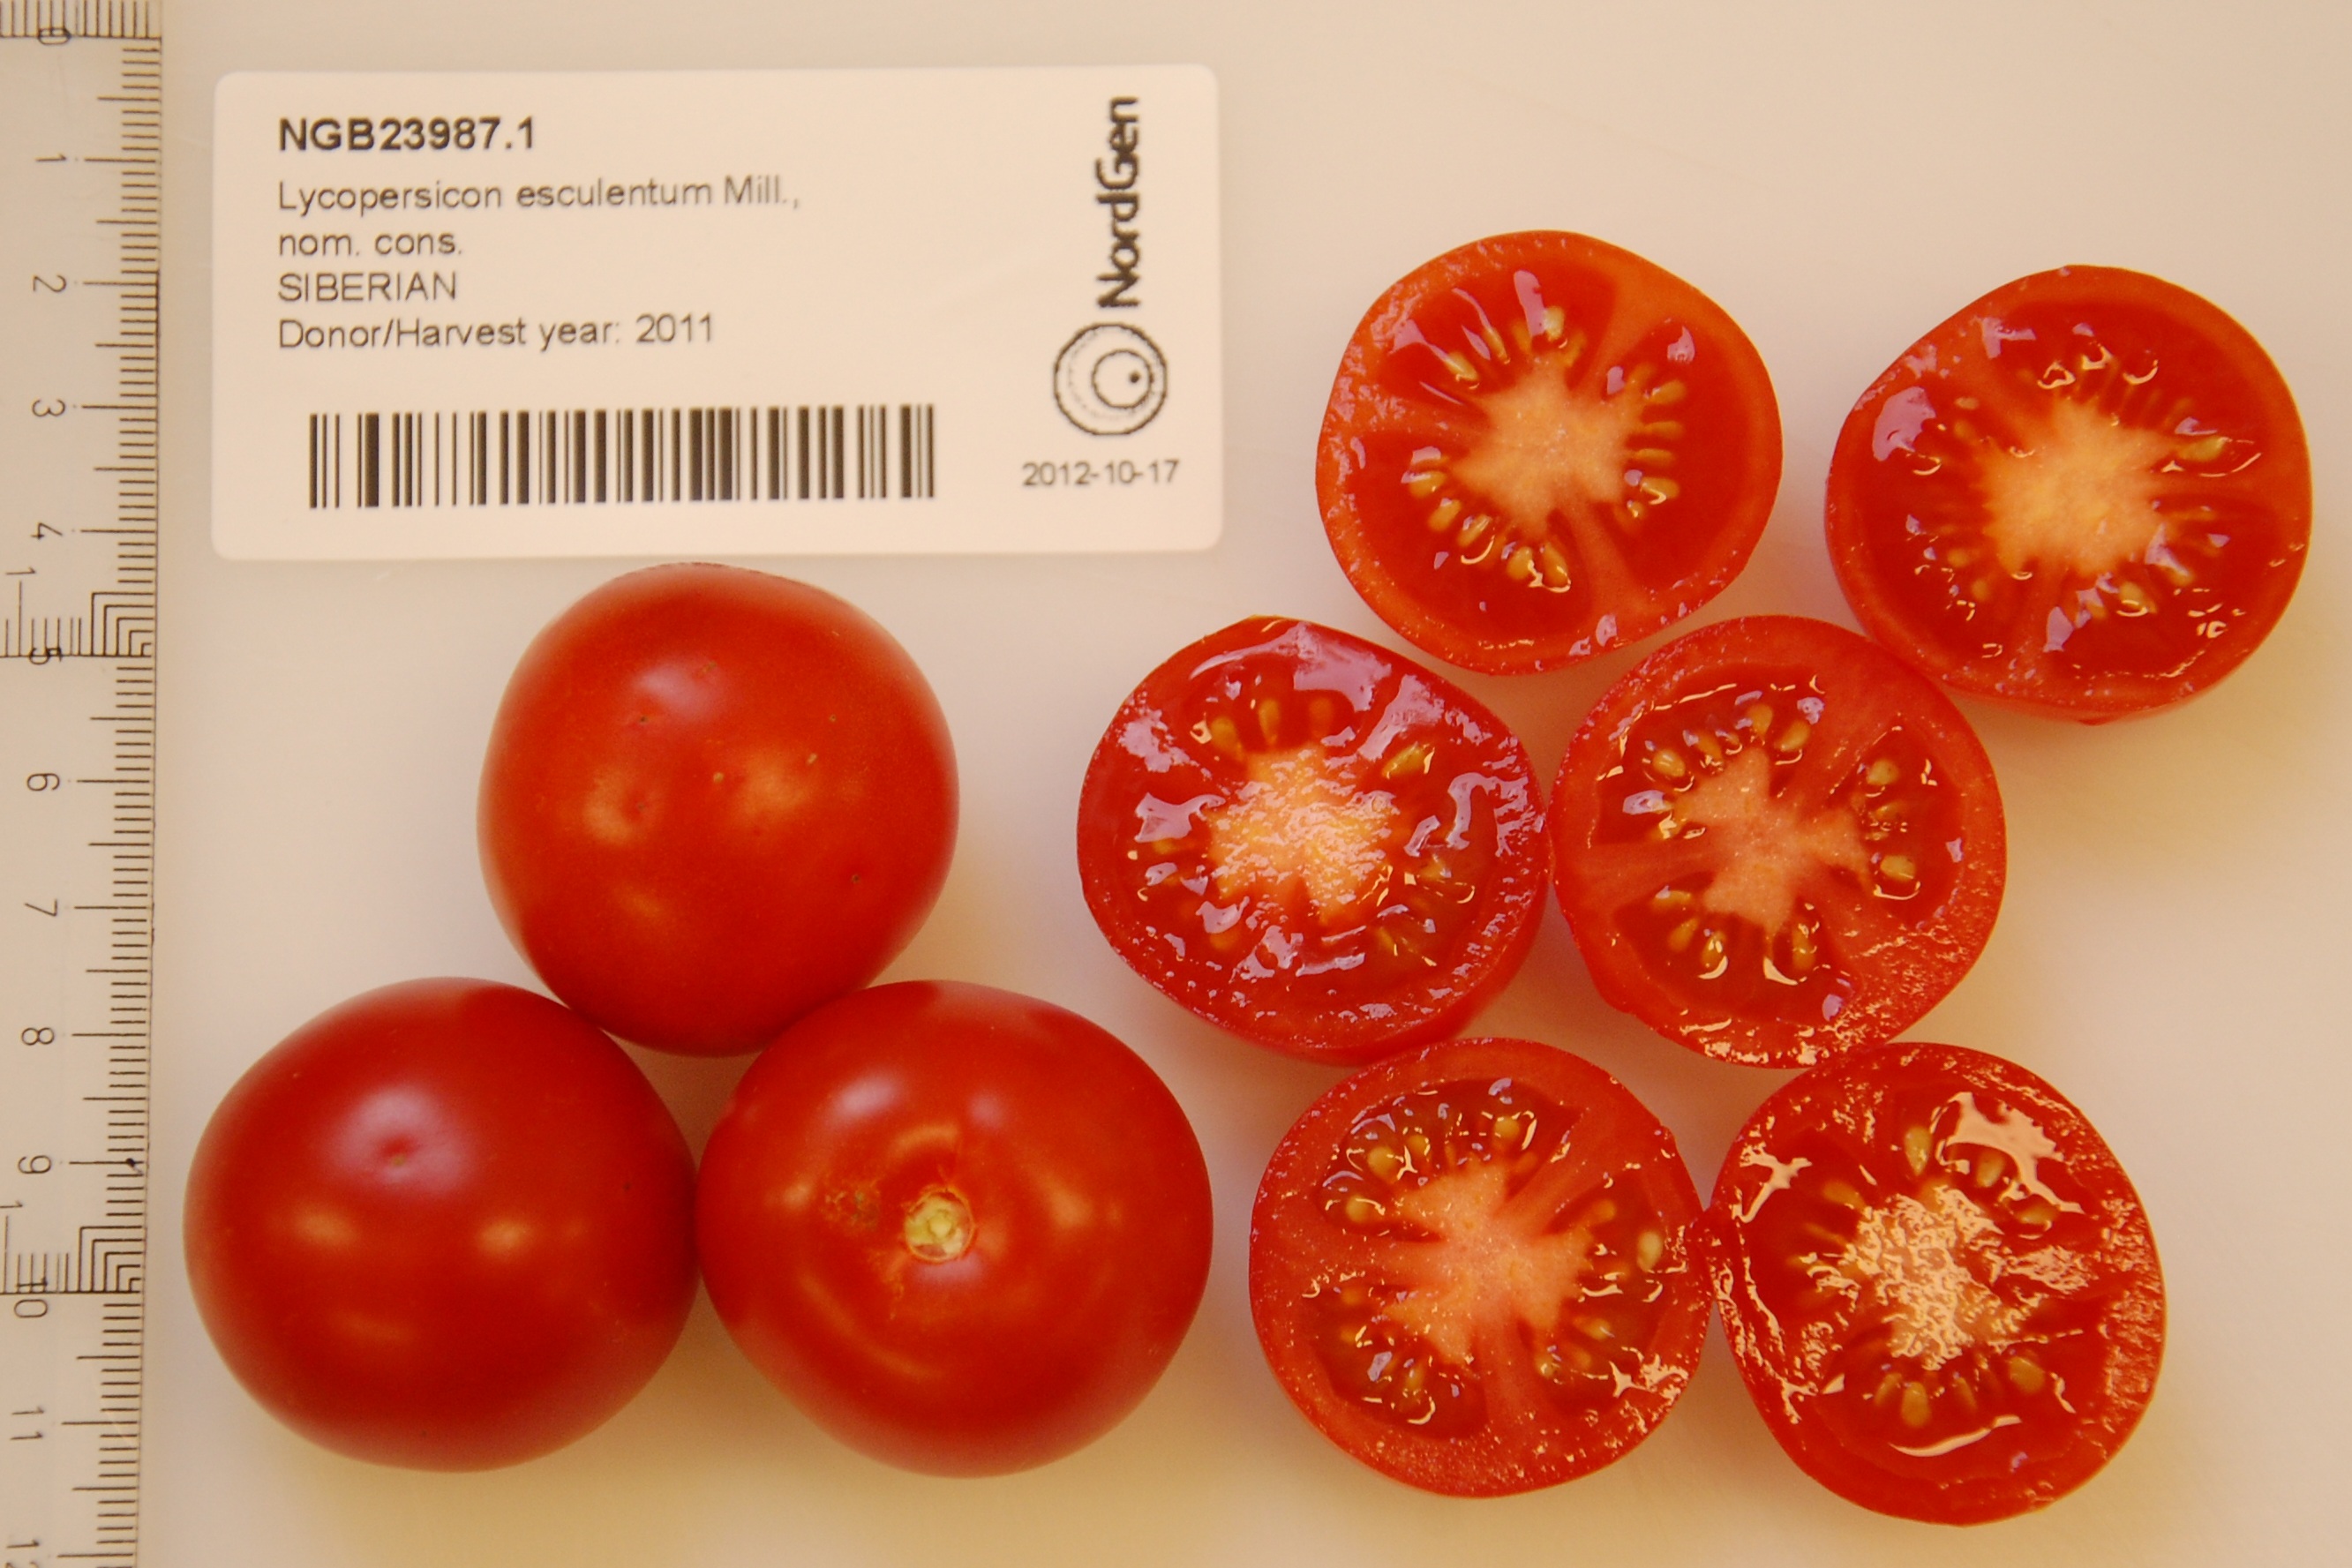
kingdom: Plantae
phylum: Tracheophyta
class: Magnoliopsida
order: Solanales
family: Solanaceae
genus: Solanum
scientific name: Solanum lycopersicum
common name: Garden tomato
